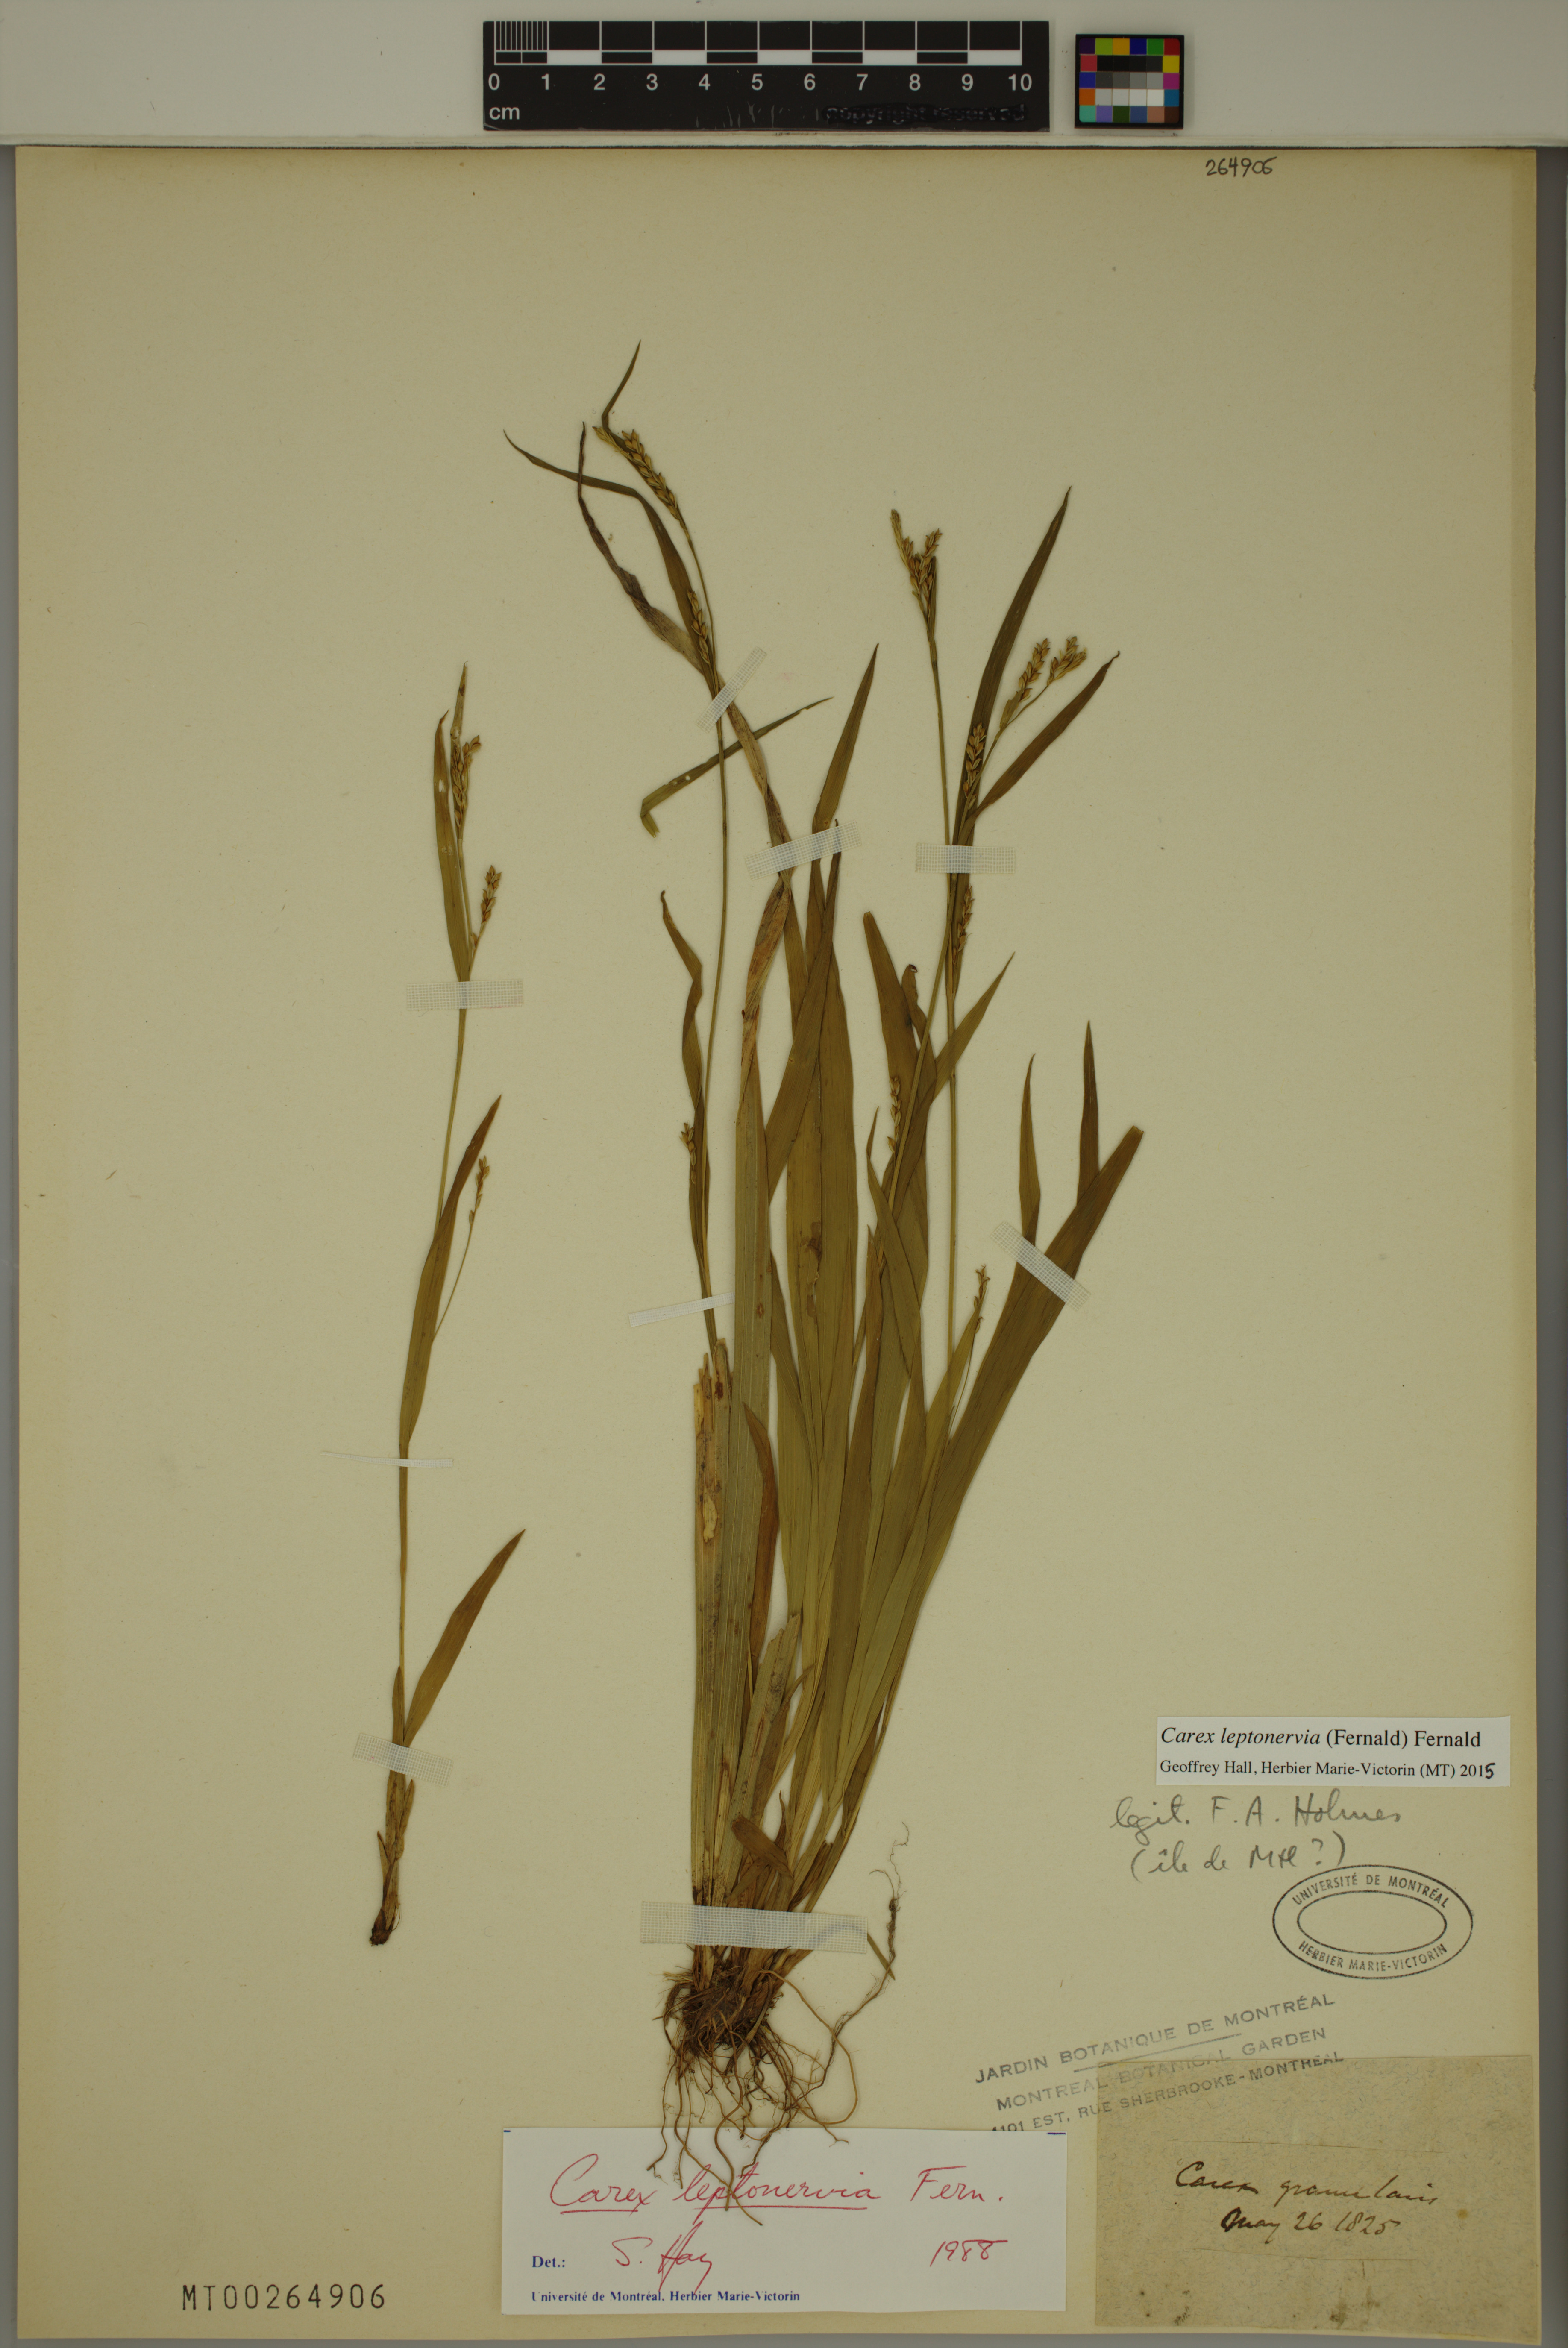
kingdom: Plantae
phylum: Tracheophyta
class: Liliopsida
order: Poales
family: Cyperaceae
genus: Carex
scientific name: Carex leptonervia
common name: Few-nerved wood sedge
